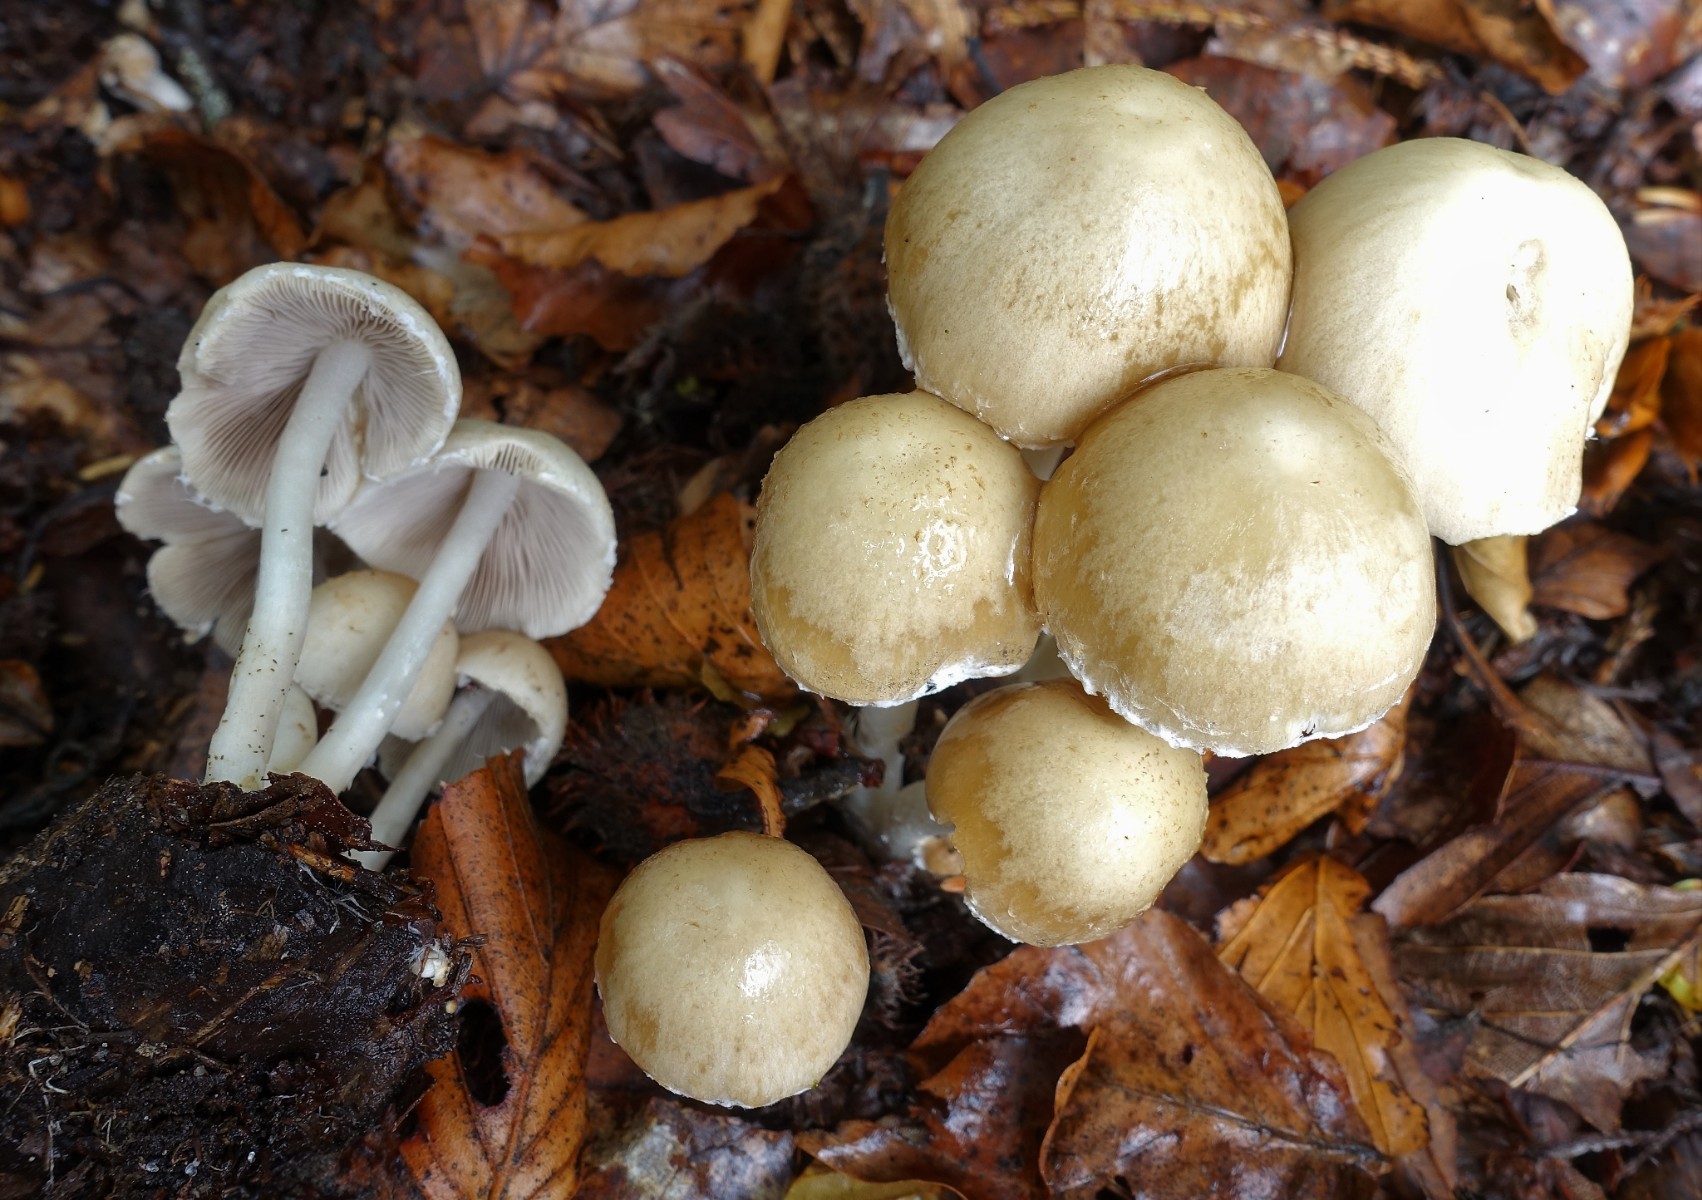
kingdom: Fungi
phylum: Basidiomycota
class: Agaricomycetes
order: Agaricales
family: Psathyrellaceae
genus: Candolleomyces
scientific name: Candolleomyces candolleanus
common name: Candolles mørkhat
